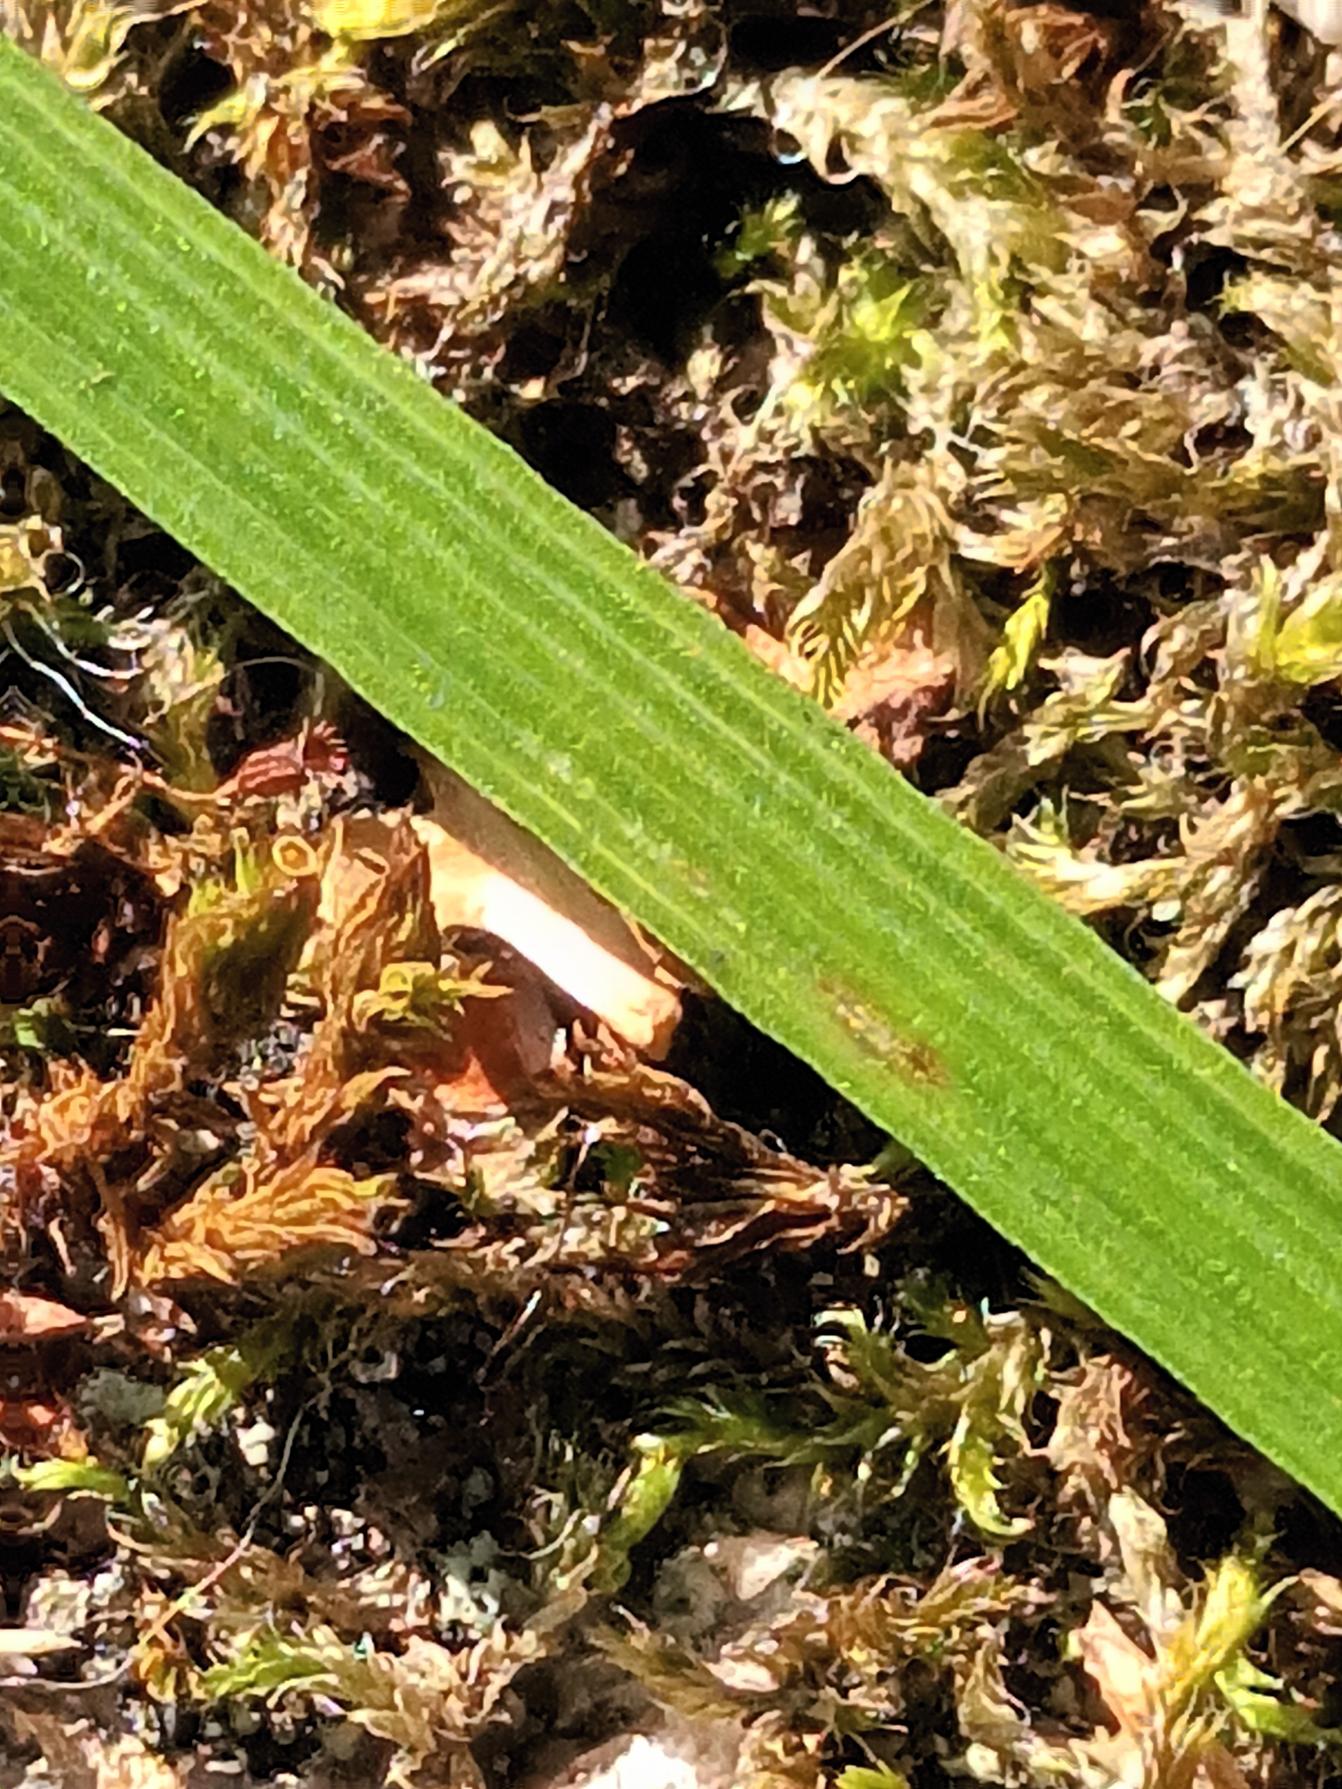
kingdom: Plantae
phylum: Tracheophyta
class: Liliopsida
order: Poales
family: Poaceae
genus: Deschampsia
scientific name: Deschampsia cespitosa
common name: Mose-bunke
